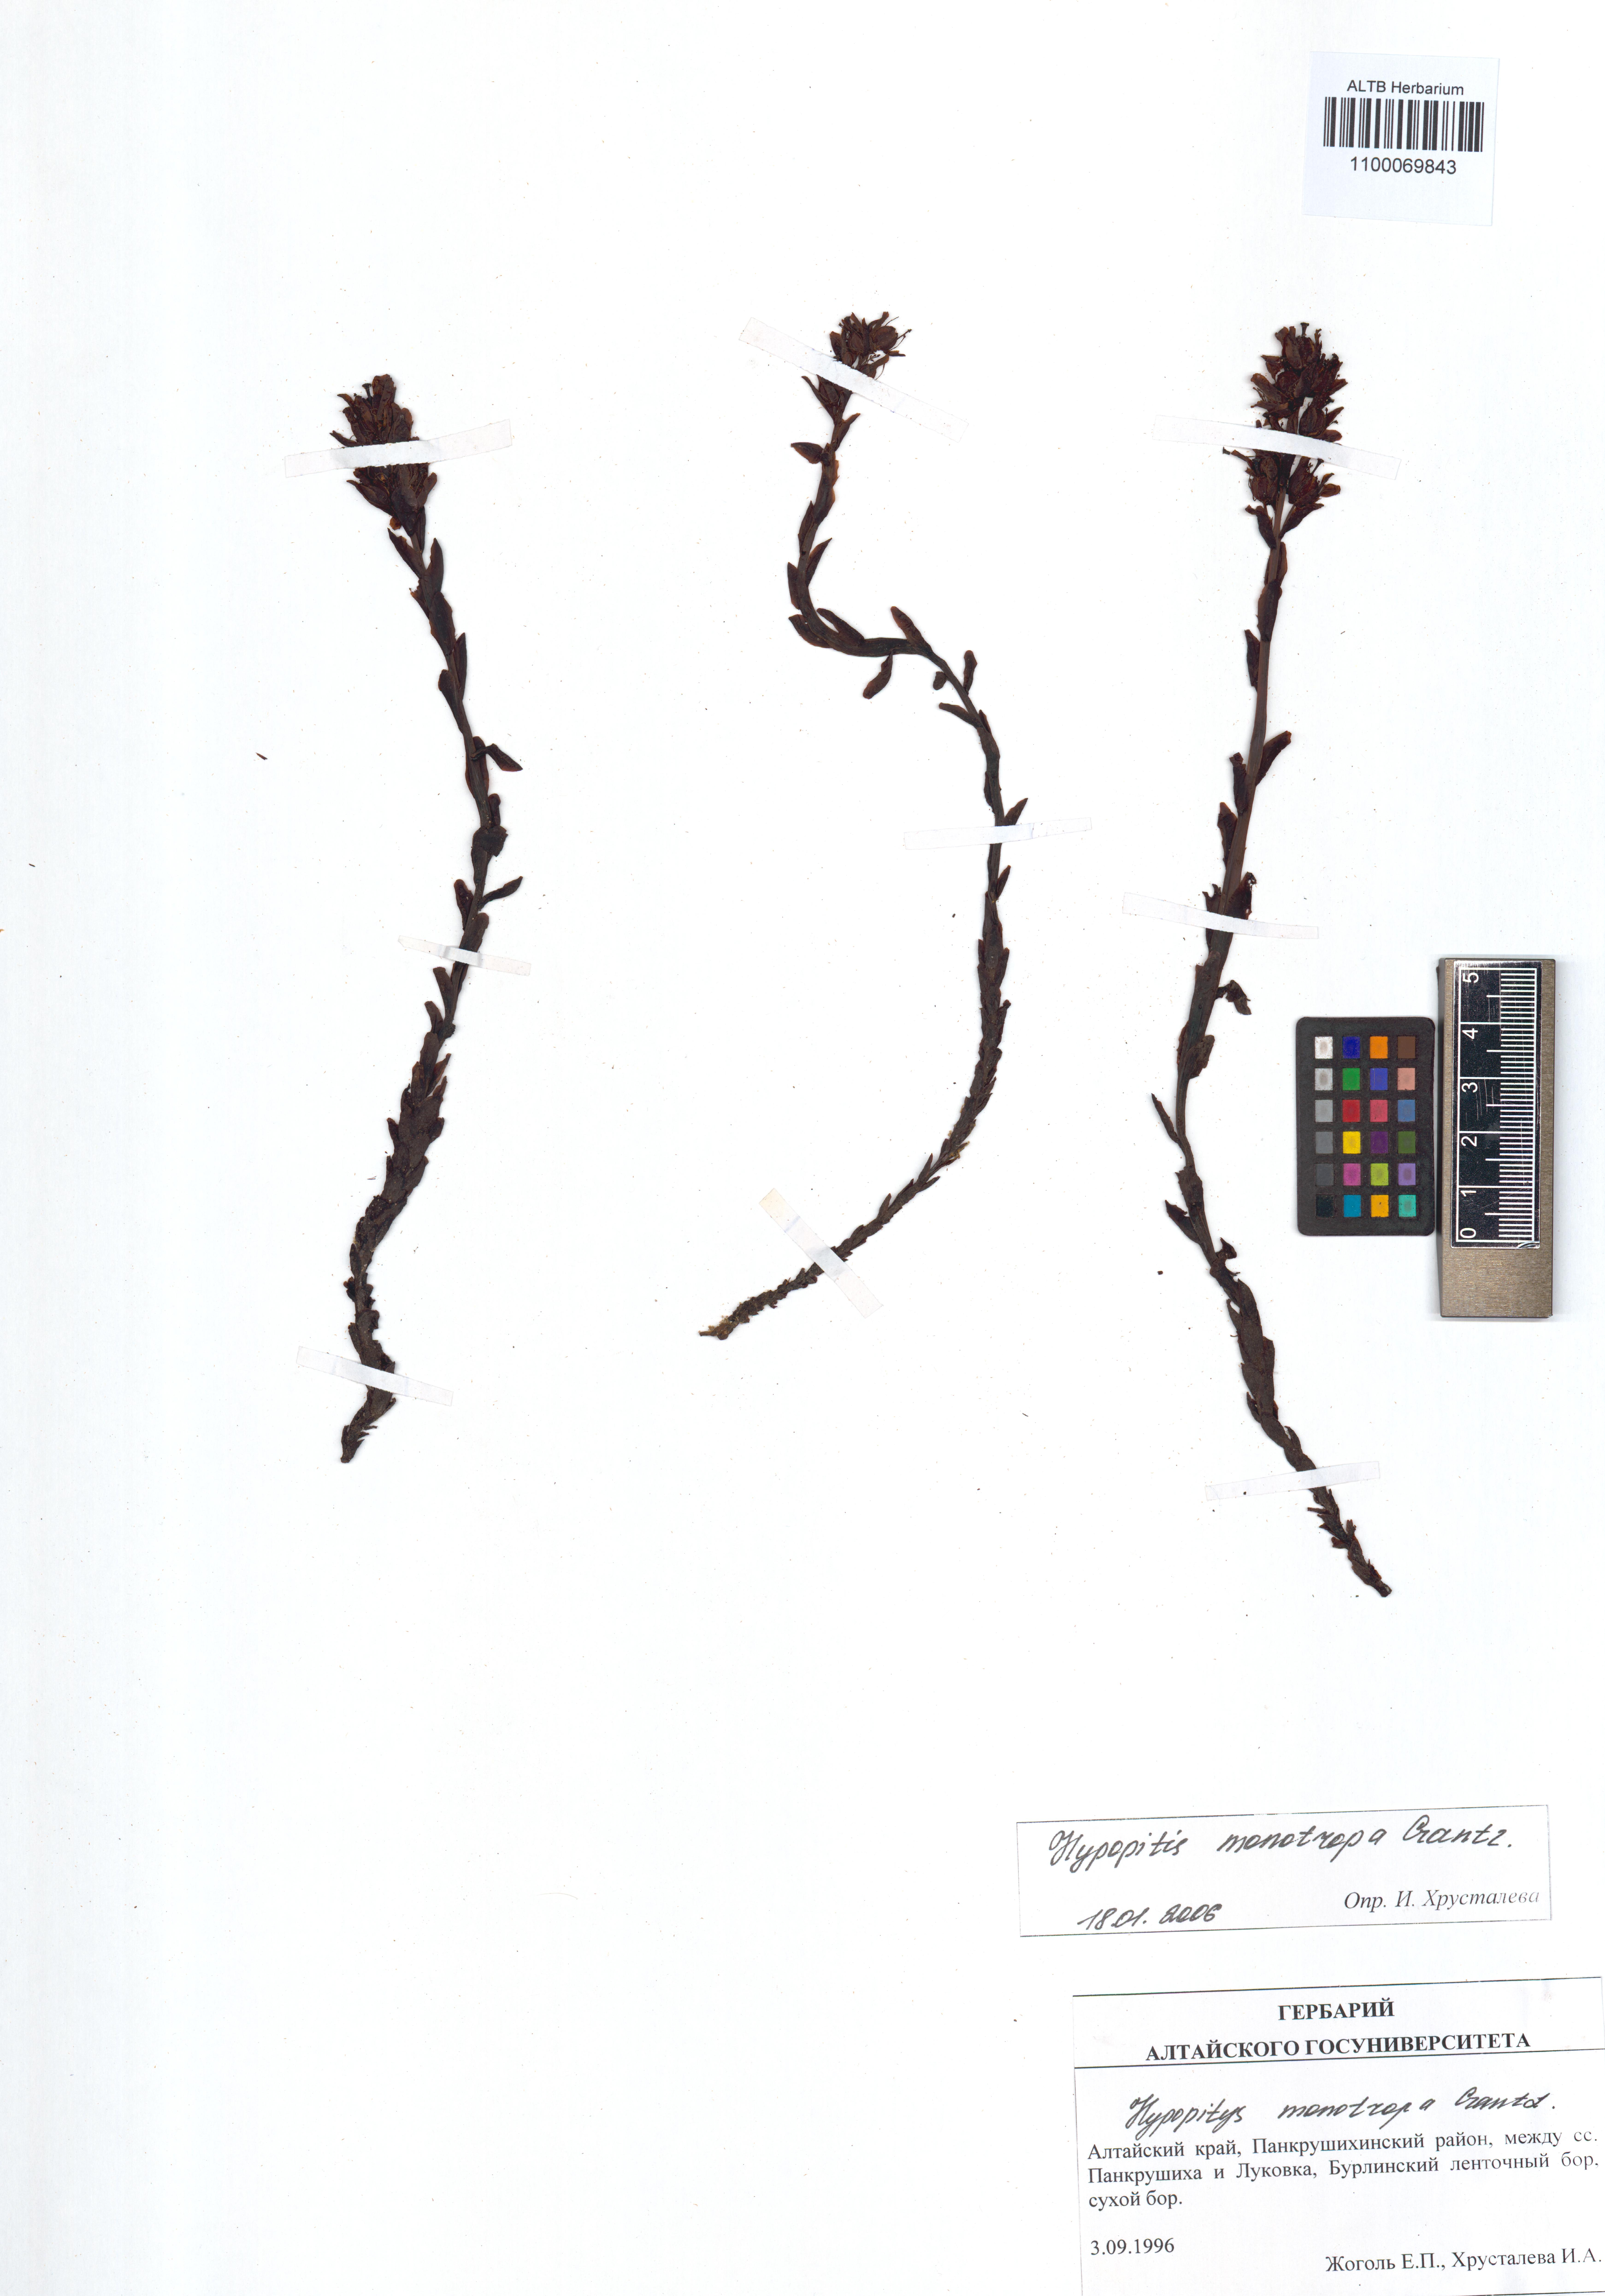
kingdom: Plantae
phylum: Tracheophyta
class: Magnoliopsida
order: Ericales
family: Ericaceae
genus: Hypopitys
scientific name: Hypopitys monotropa
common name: Yellow bird's-nest
